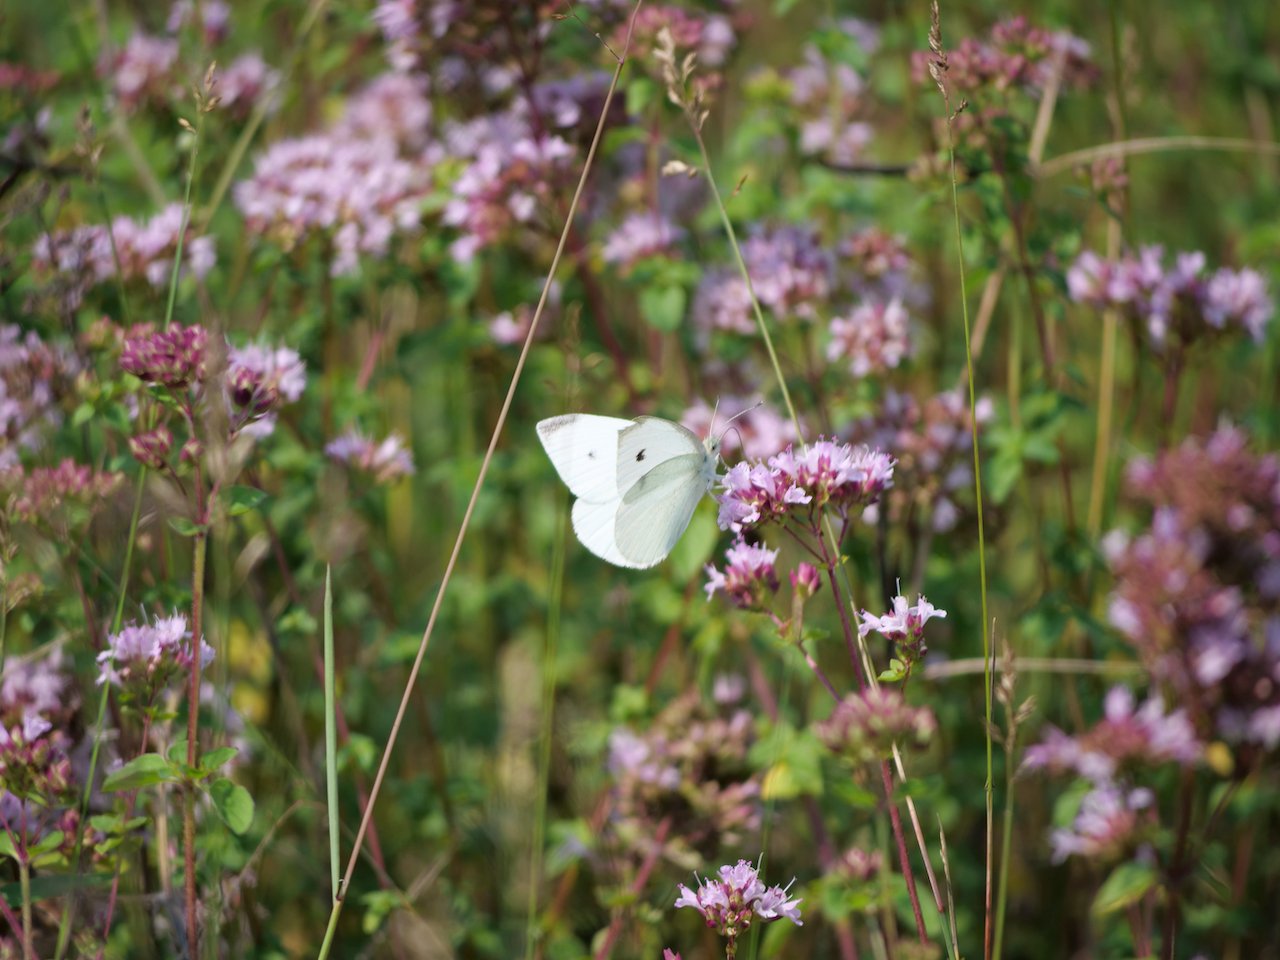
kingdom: Animalia
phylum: Arthropoda
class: Insecta
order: Lepidoptera
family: Pieridae
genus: Pieris
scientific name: Pieris rapae
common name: Cabbage White
